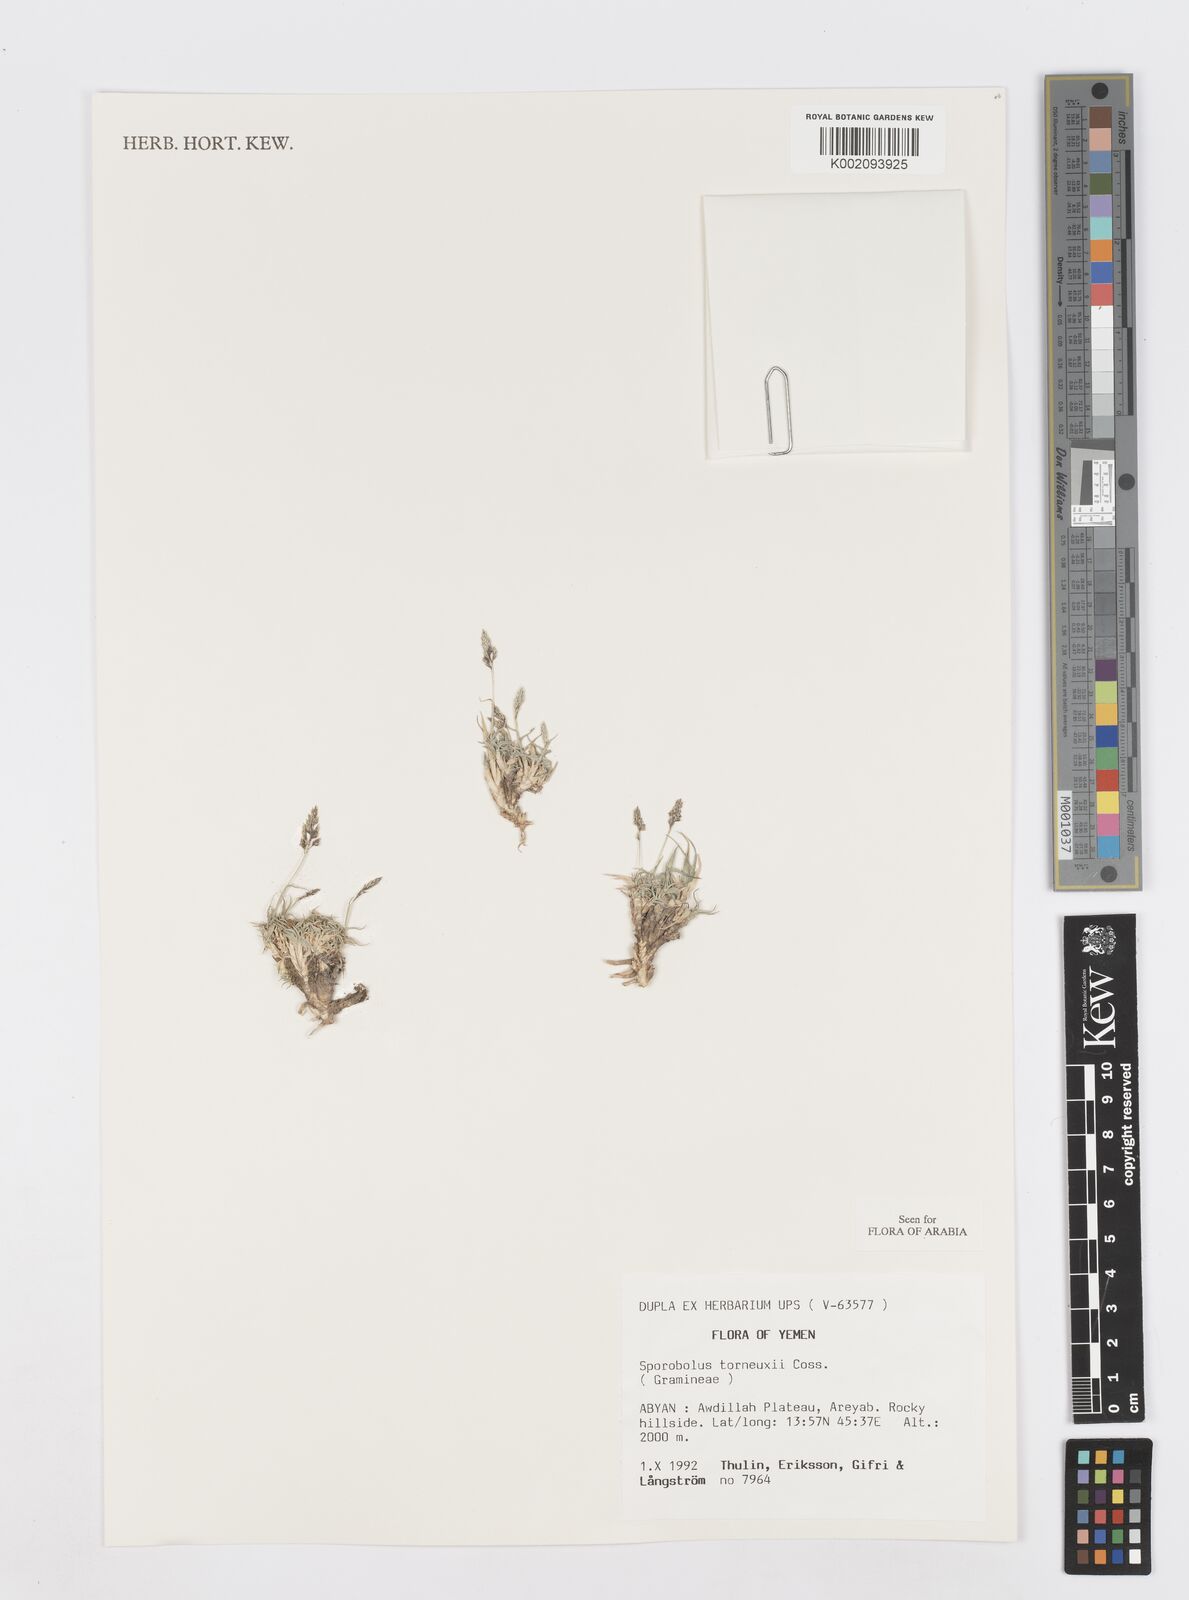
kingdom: Plantae
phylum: Tracheophyta
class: Liliopsida
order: Poales
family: Poaceae
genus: Sporobolus
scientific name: Sporobolus tourneuxii
